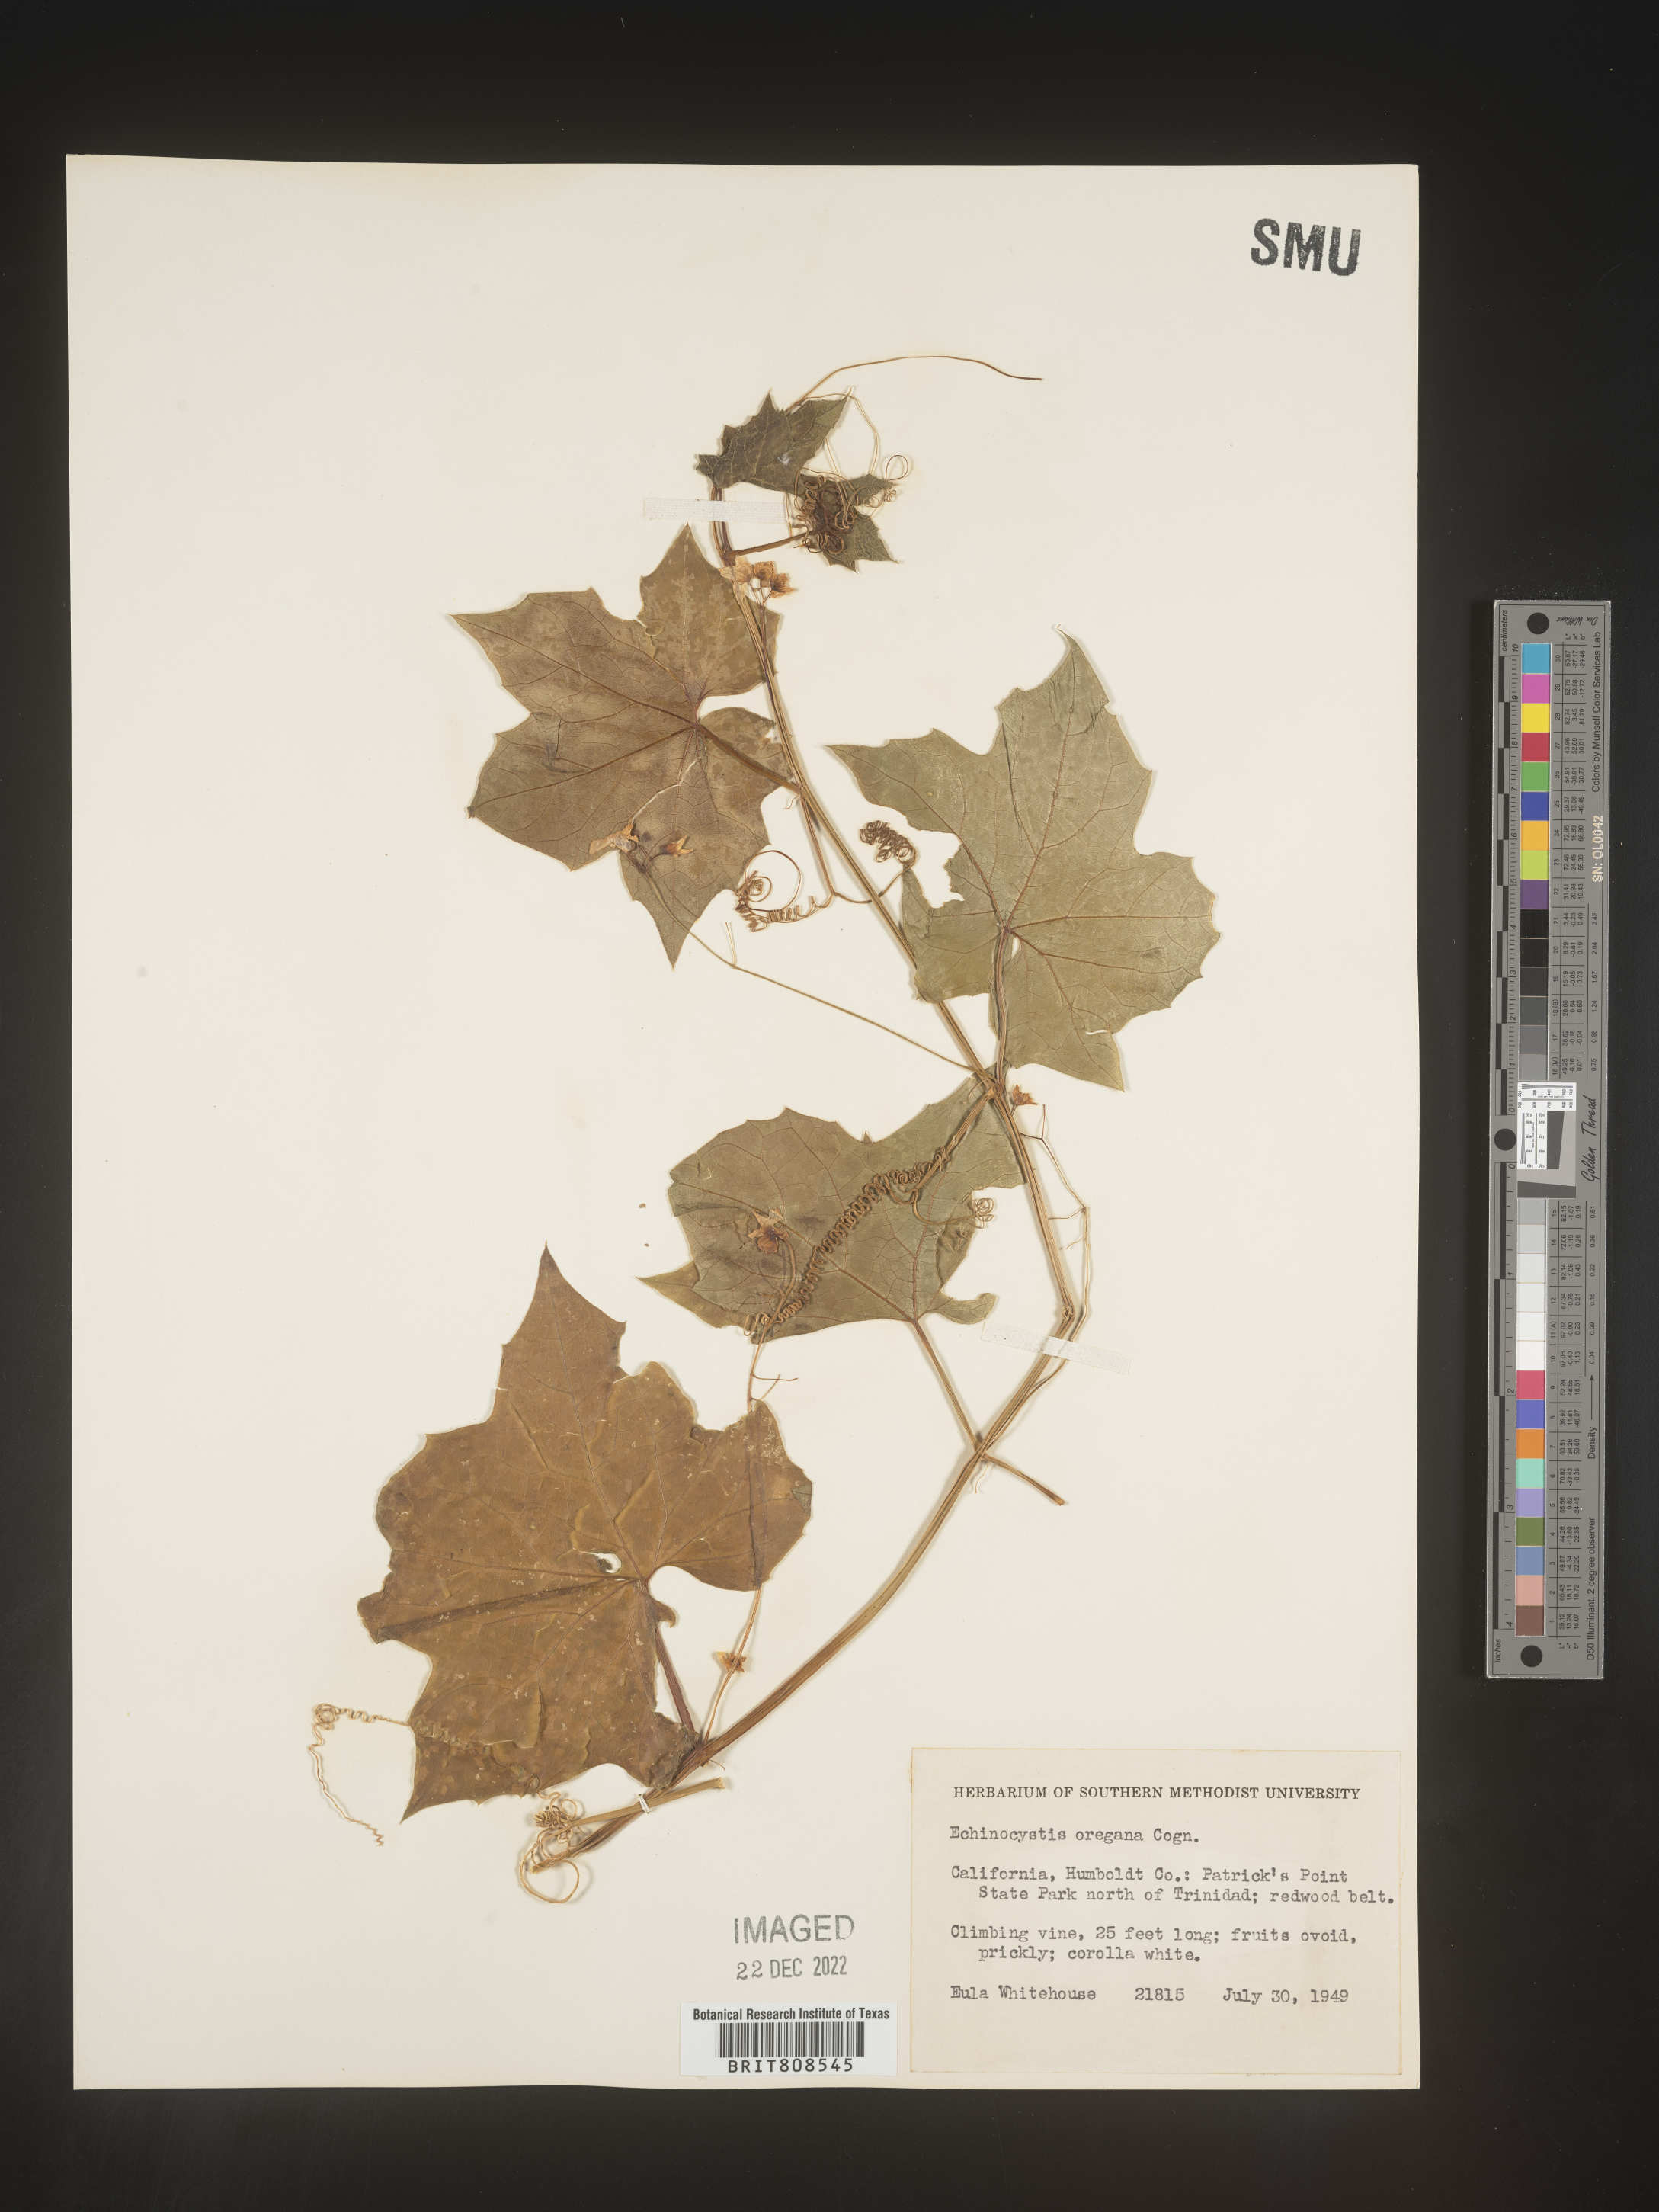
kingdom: Plantae
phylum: Tracheophyta
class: Magnoliopsida
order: Cucurbitales
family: Cucurbitaceae
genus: Marah
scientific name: Marah
